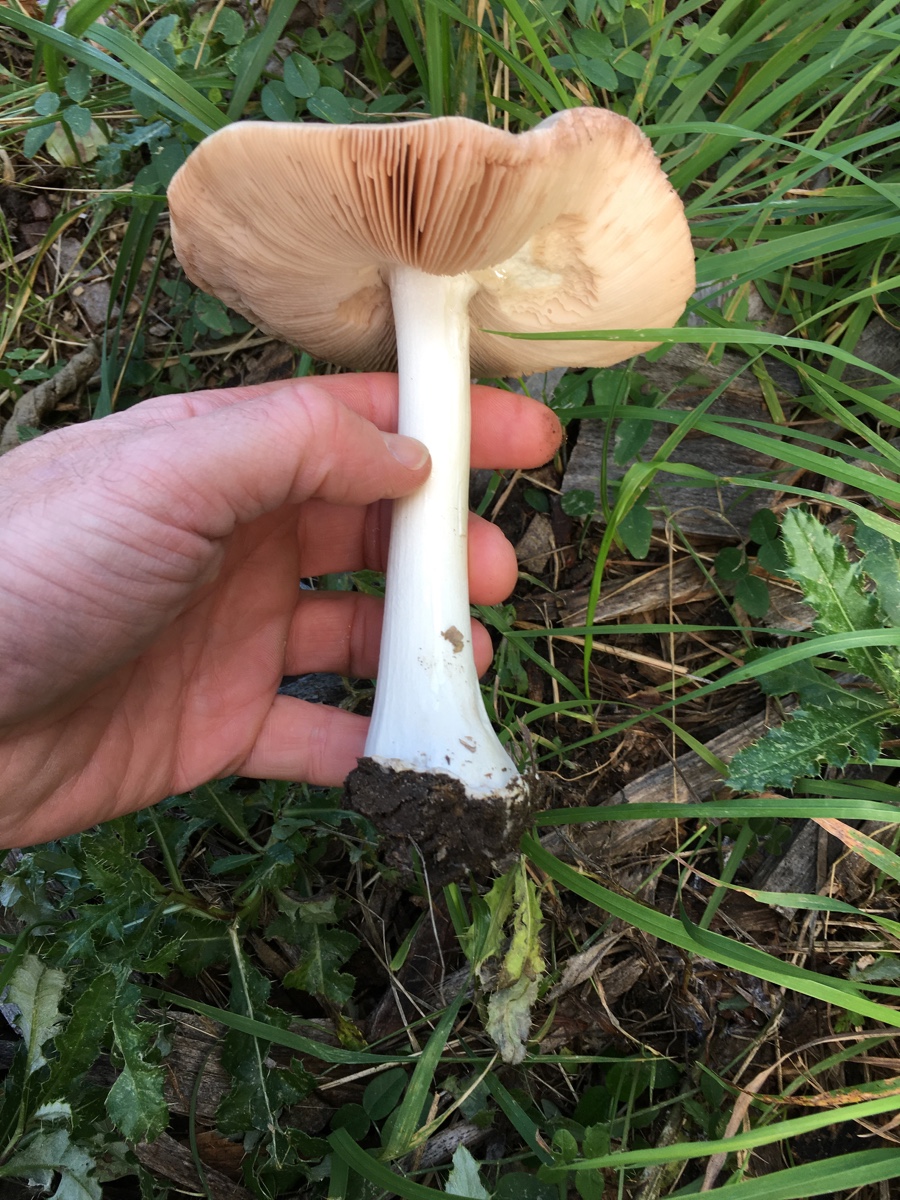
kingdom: Fungi
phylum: Basidiomycota
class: Agaricomycetes
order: Agaricales
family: Pluteaceae
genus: Volvopluteus
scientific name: Volvopluteus gloiocephalus
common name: høj posesvamp
